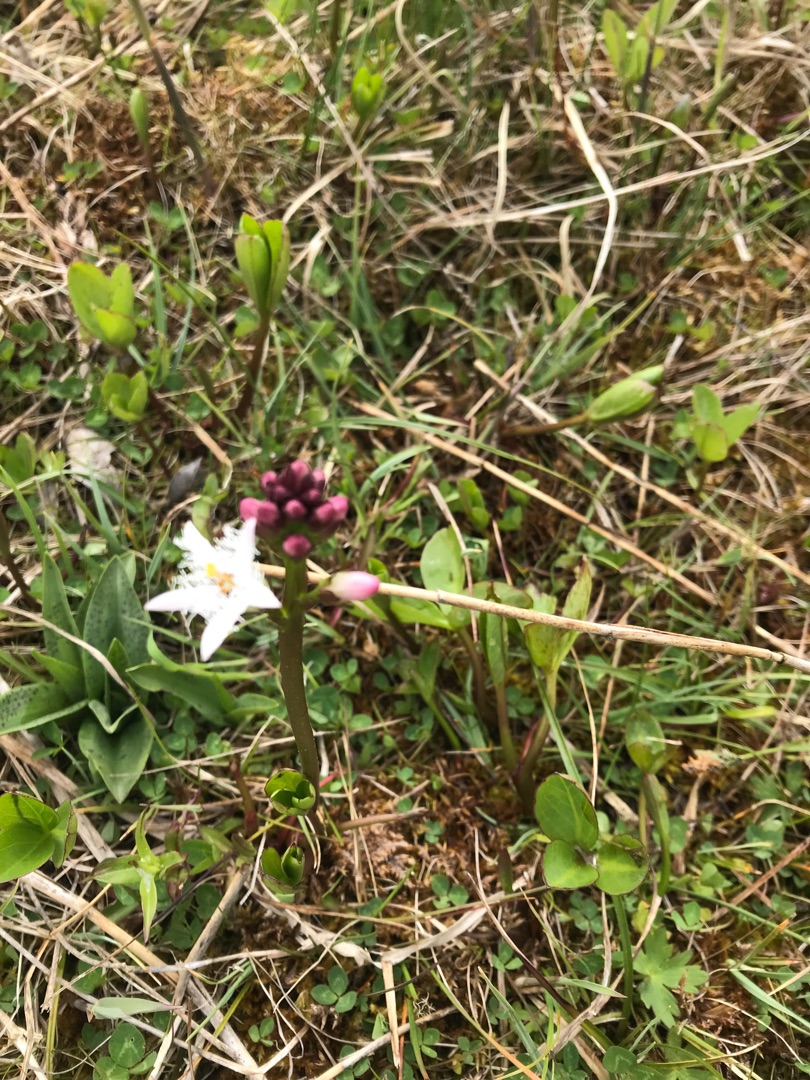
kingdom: Plantae
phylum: Tracheophyta
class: Magnoliopsida
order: Asterales
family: Menyanthaceae
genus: Menyanthes
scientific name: Menyanthes trifoliata
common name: Bukkeblad
